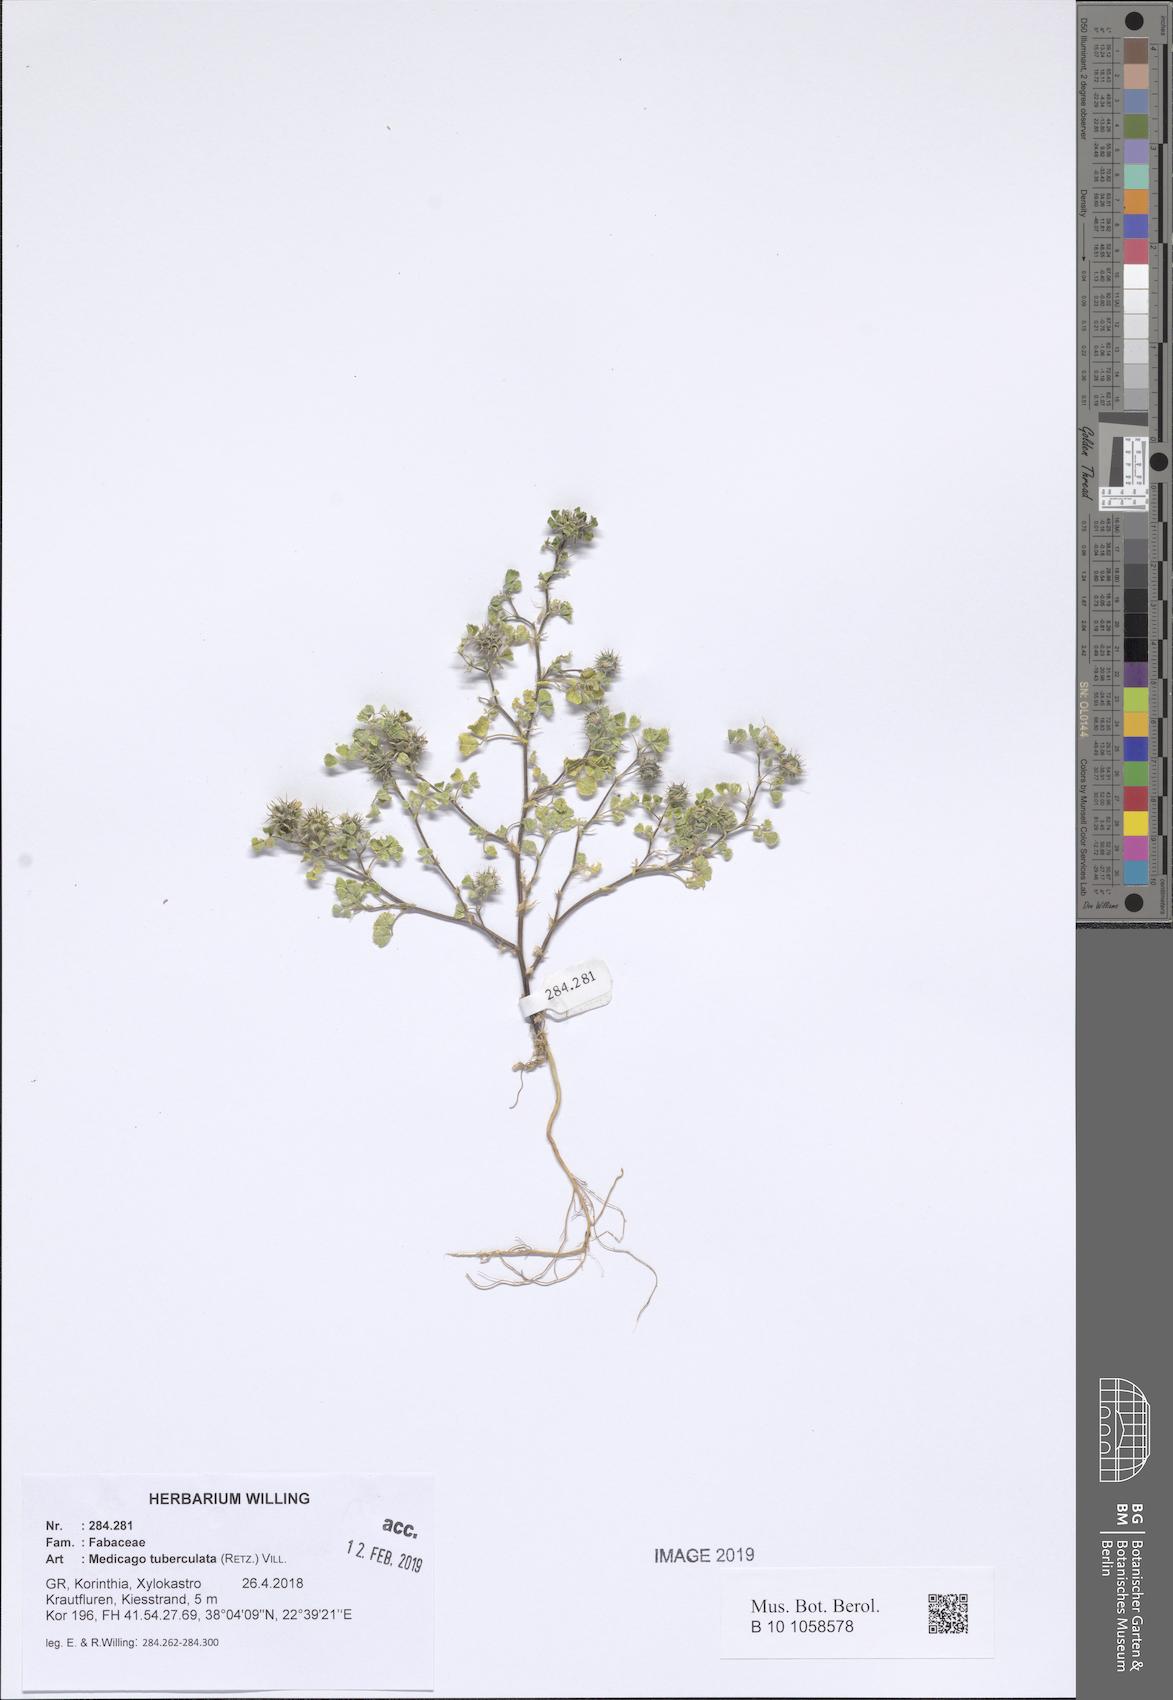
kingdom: Plantae
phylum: Tracheophyta
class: Magnoliopsida
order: Fabales
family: Fabaceae
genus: Medicago
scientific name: Medicago turbinata
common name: Southern medick
